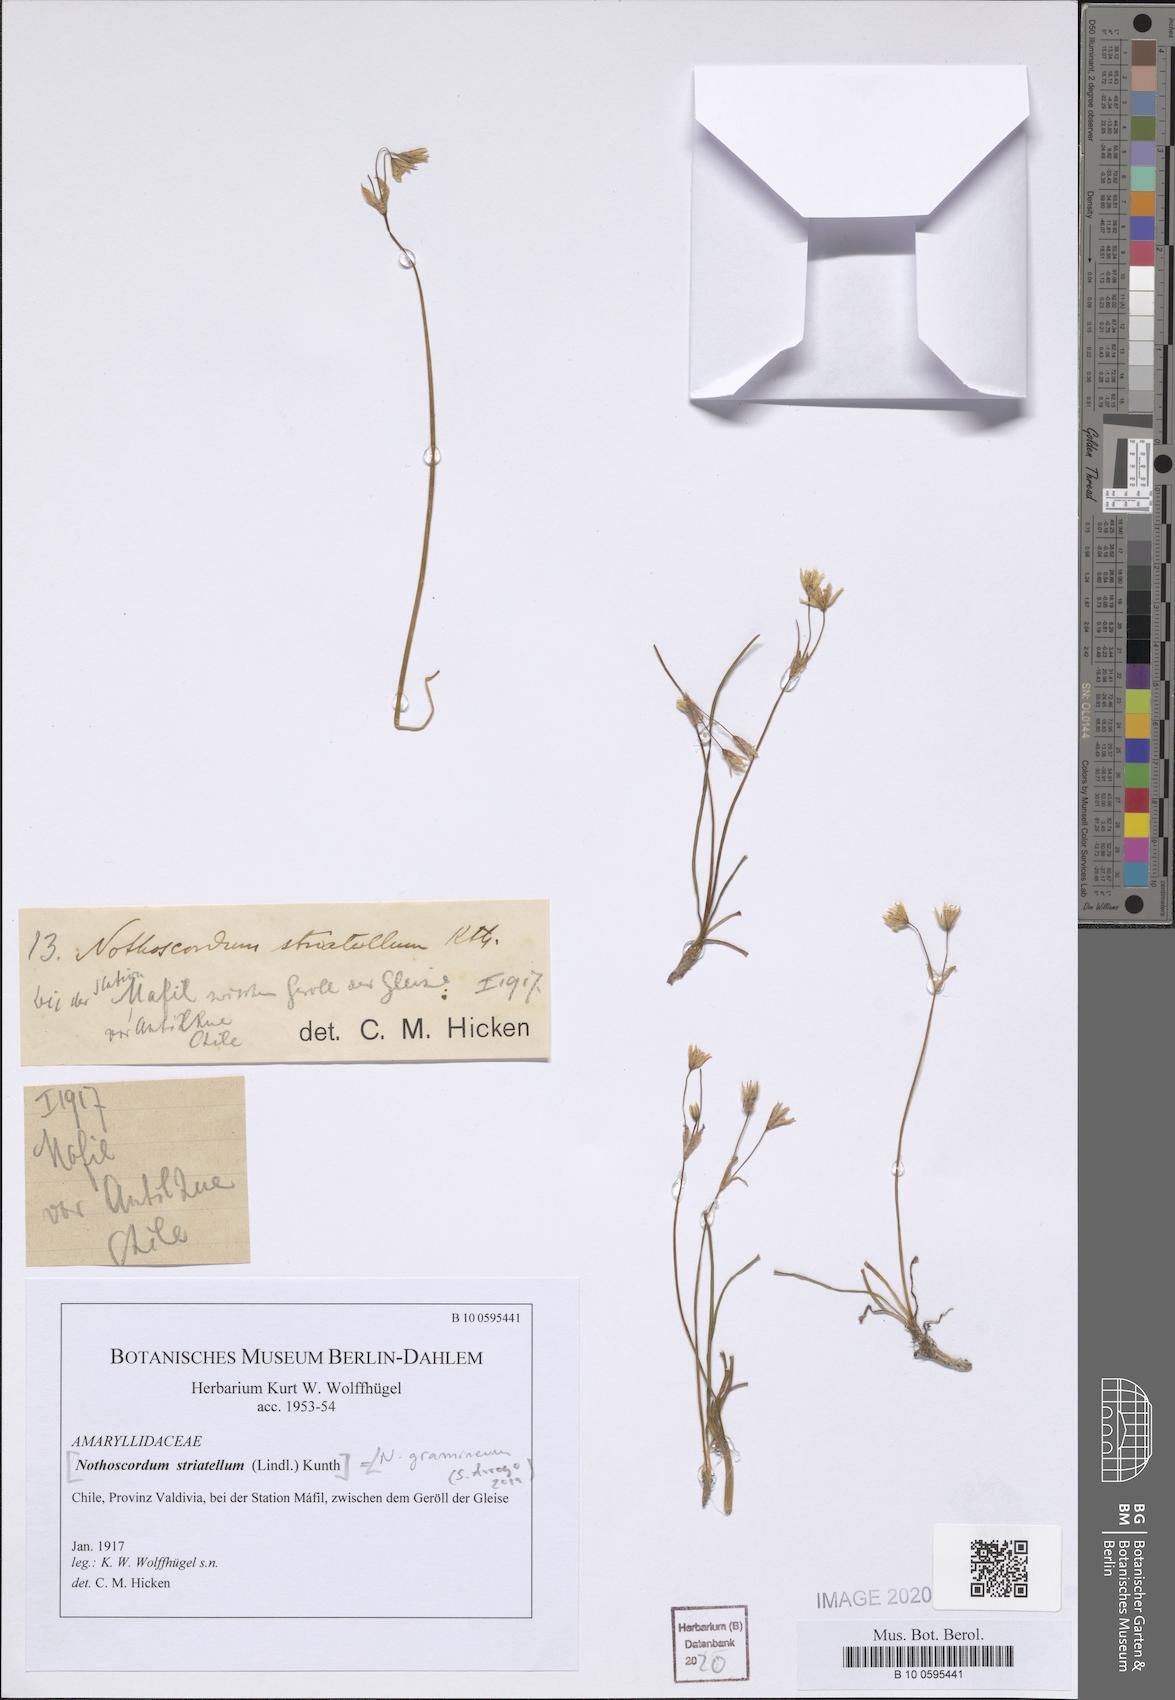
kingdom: Plantae
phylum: Tracheophyta
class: Liliopsida
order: Asparagales
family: Amaryllidaceae
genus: Nothoscordum
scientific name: Nothoscordum bivalve
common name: Crow-poison
